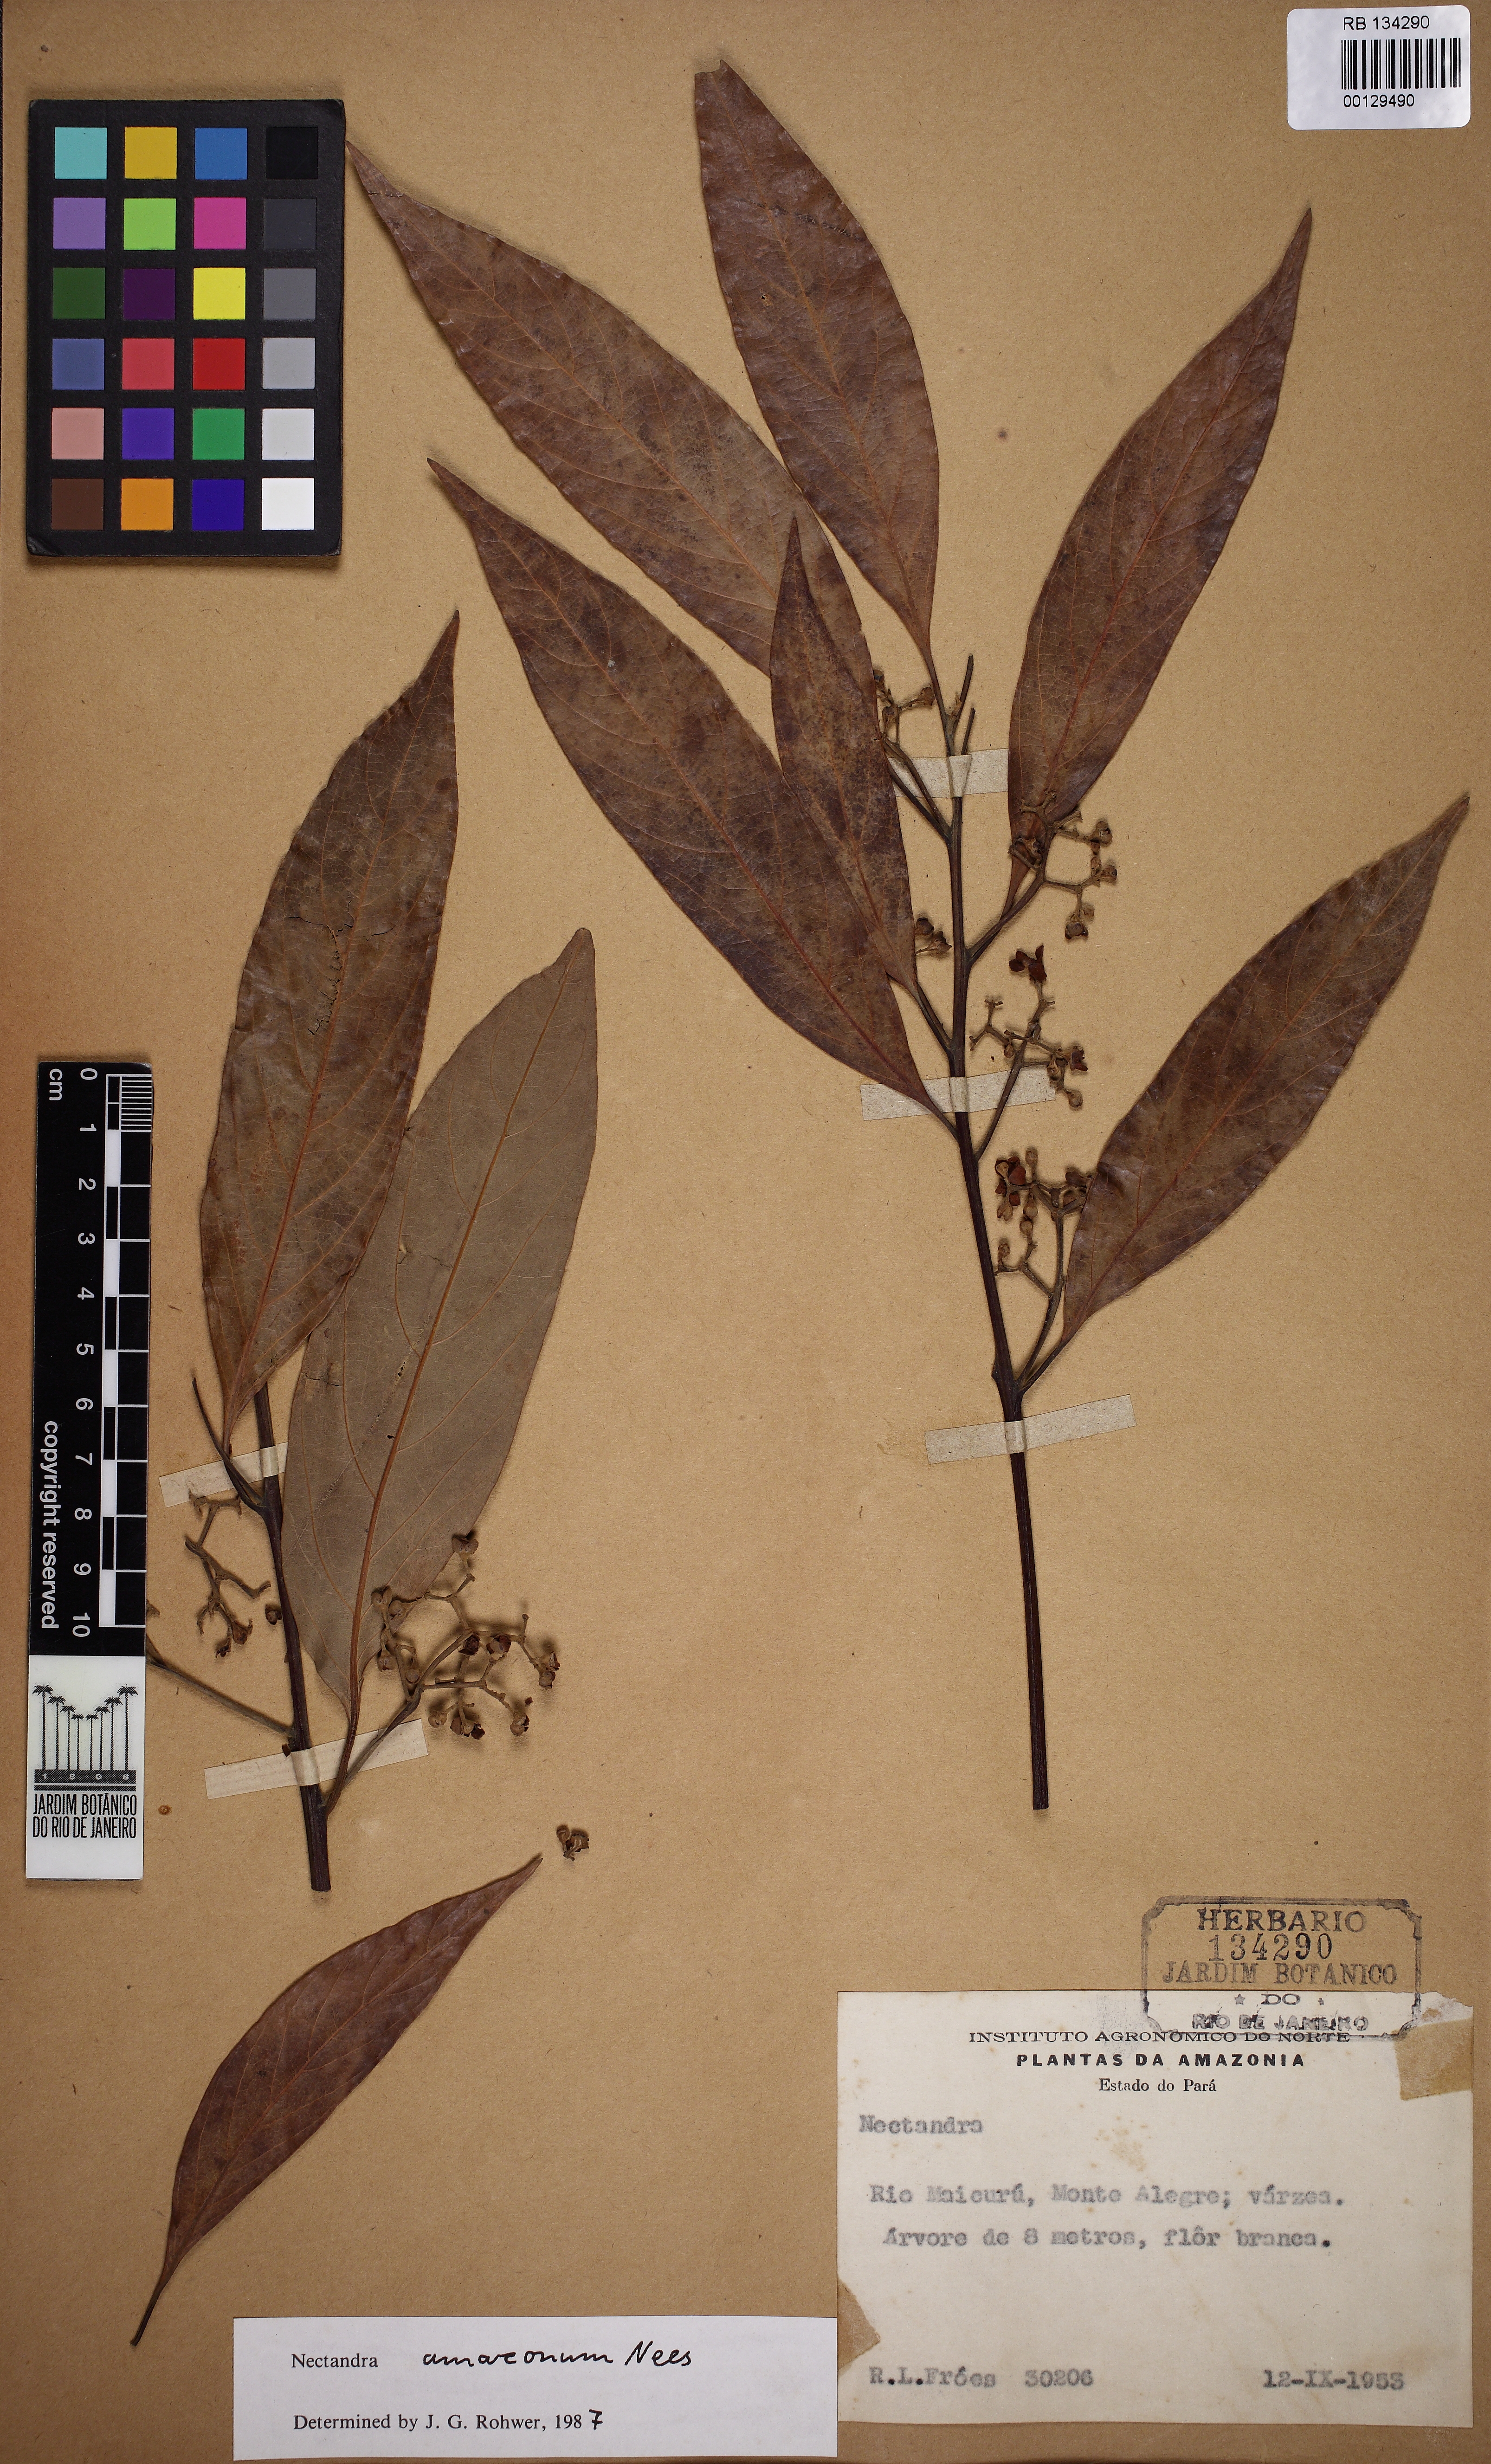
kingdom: Plantae
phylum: Tracheophyta
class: Magnoliopsida
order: Laurales
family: Lauraceae
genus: Nectandra
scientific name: Nectandra amazonum
